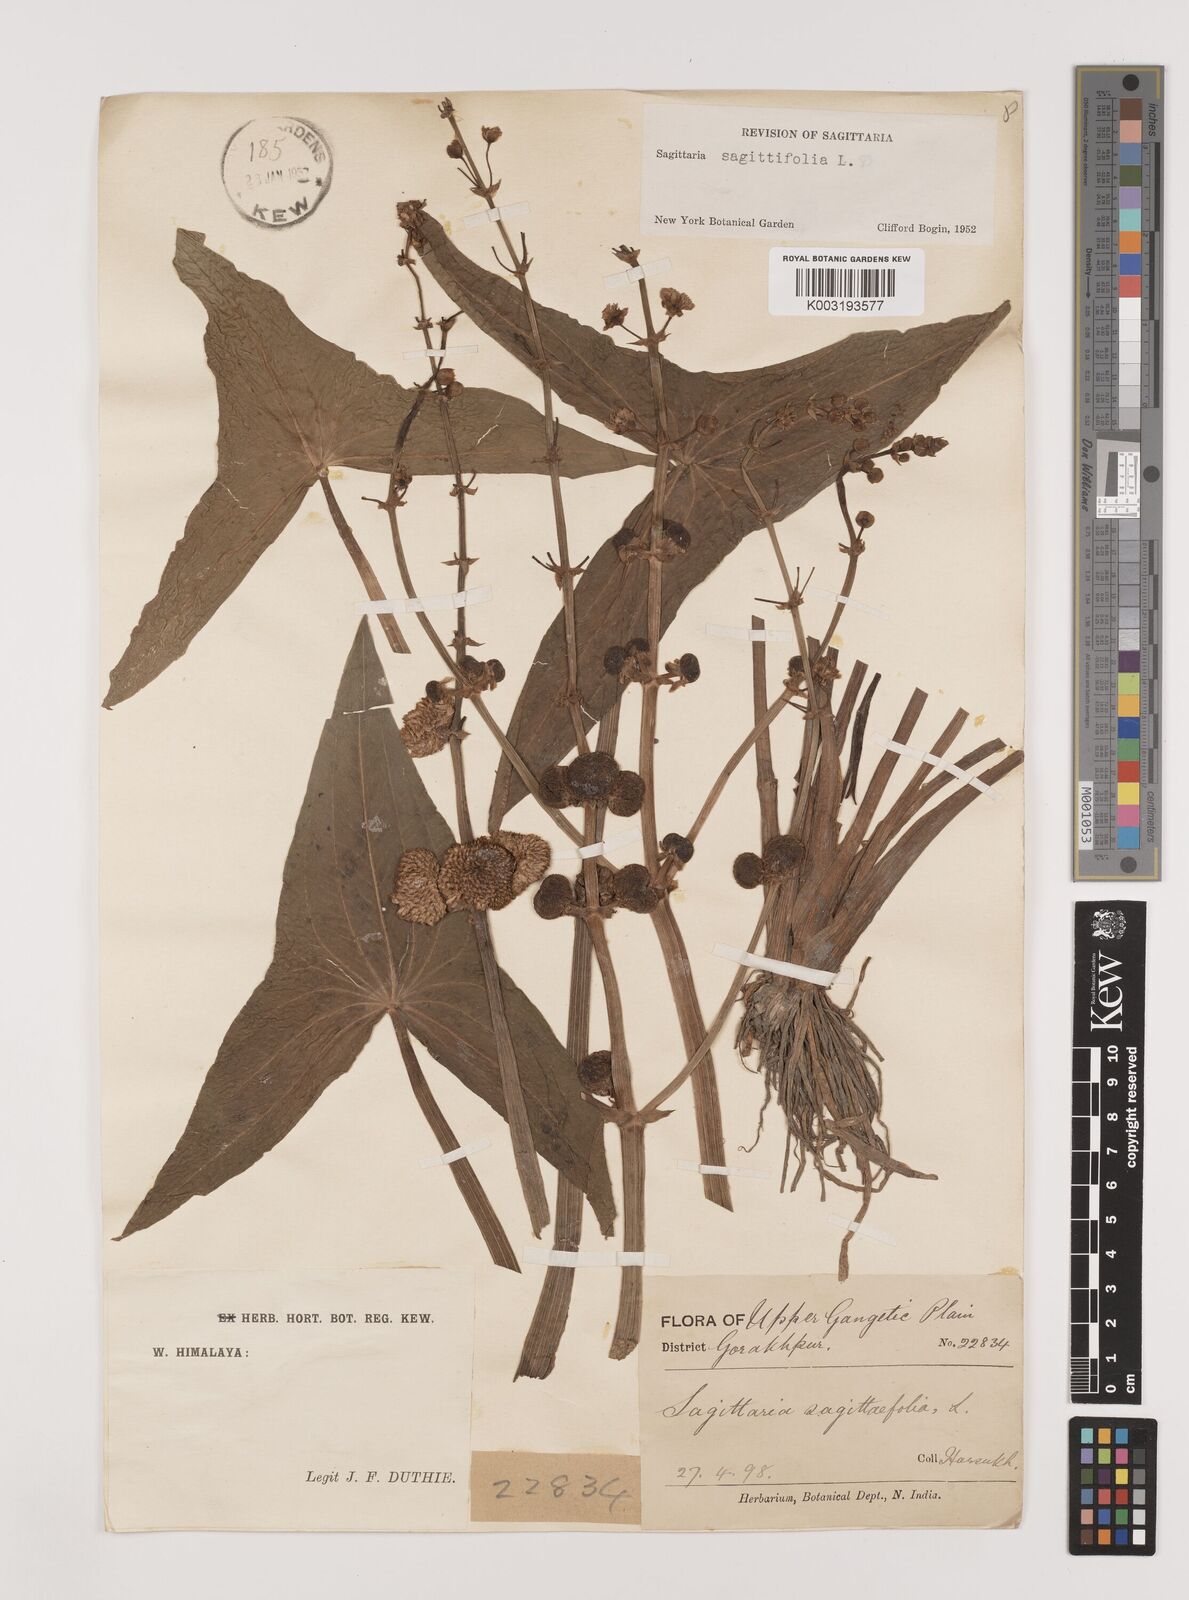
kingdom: Plantae
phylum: Tracheophyta
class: Liliopsida
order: Alismatales
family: Alismataceae
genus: Sagittaria
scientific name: Sagittaria sagittifolia
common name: Arrowhead
